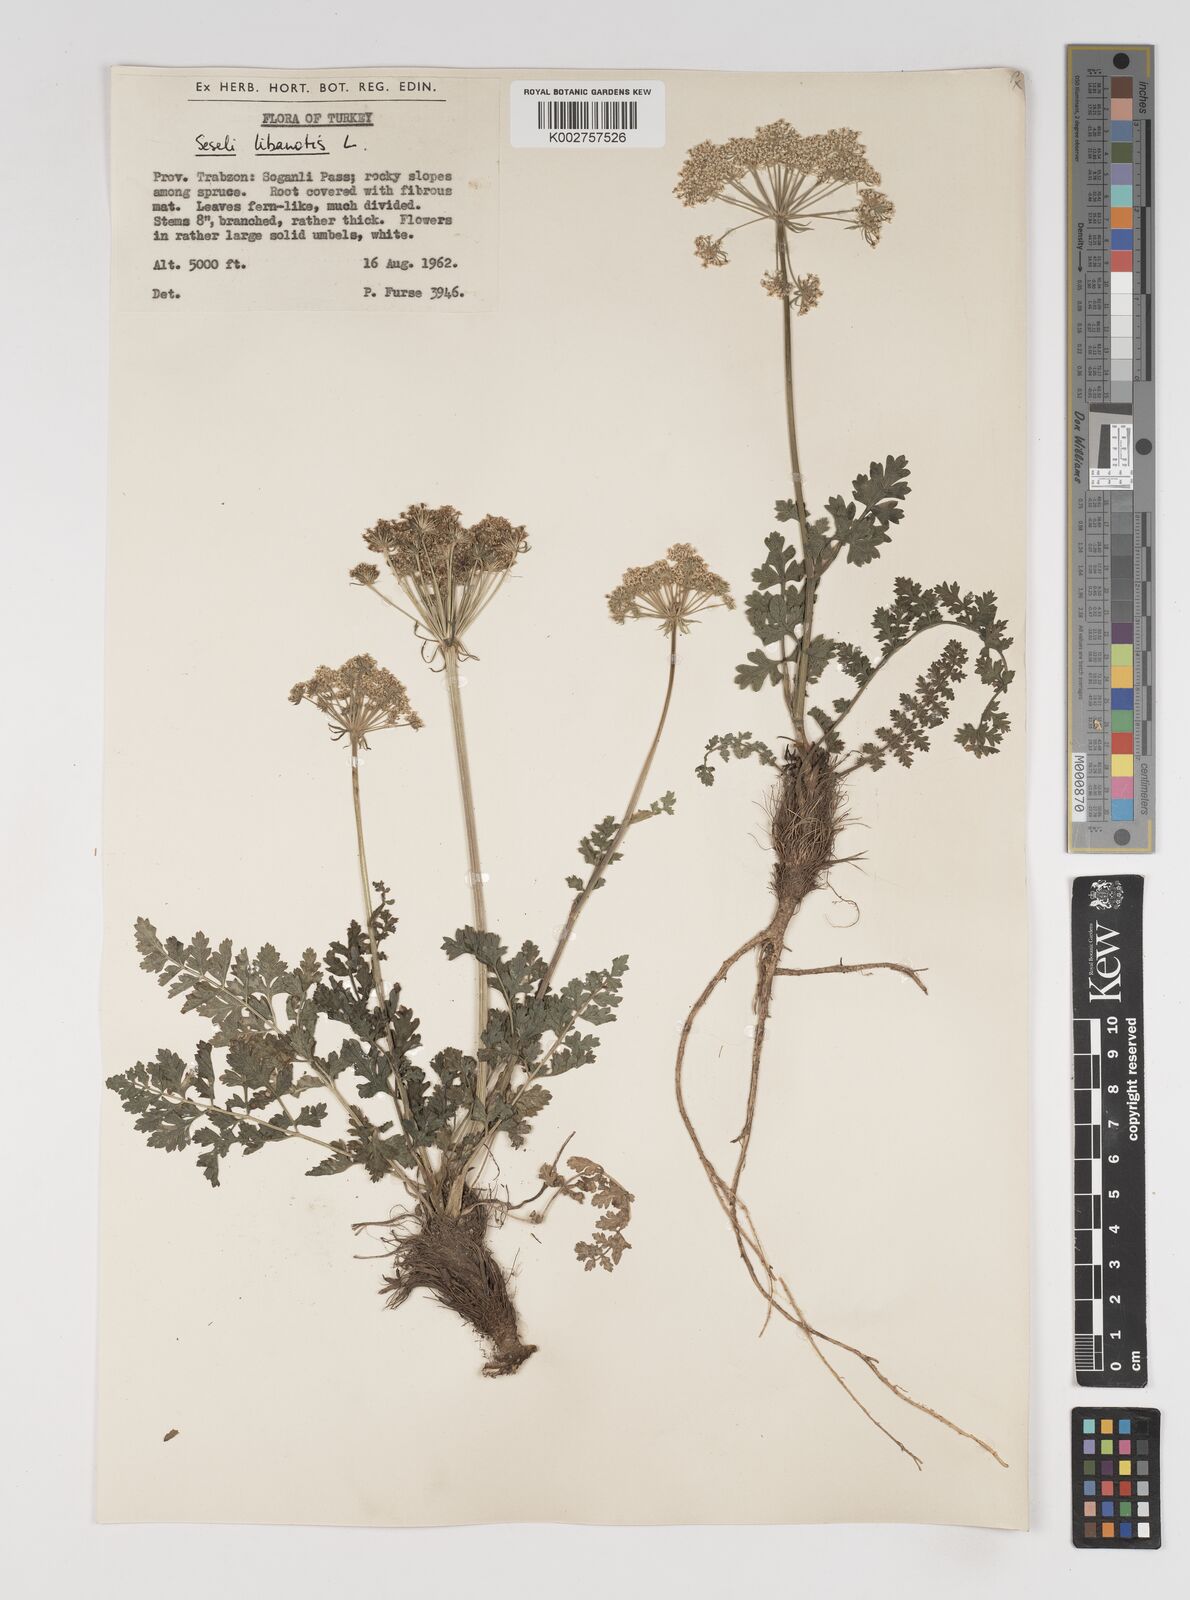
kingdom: Plantae
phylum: Tracheophyta
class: Magnoliopsida
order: Apiales
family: Apiaceae
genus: Seseli
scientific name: Seseli libanotis
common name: Mooncarrot
